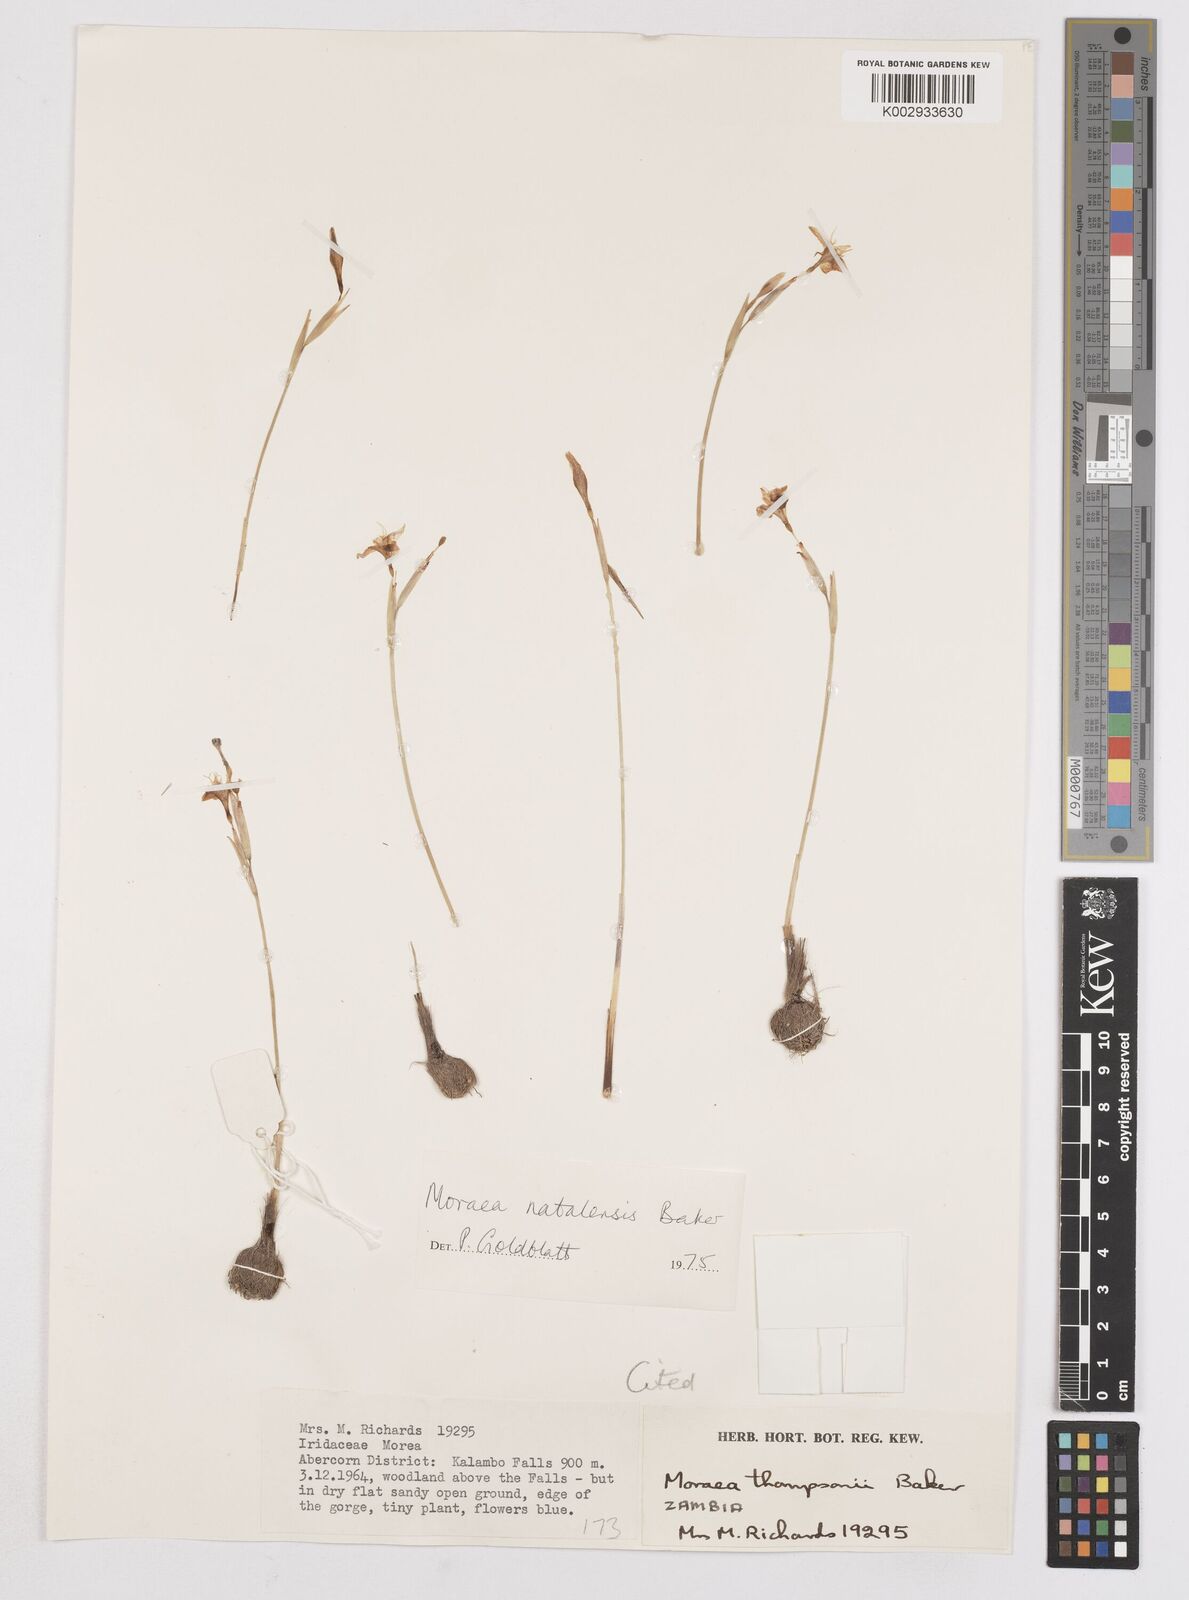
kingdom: Plantae
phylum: Tracheophyta
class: Liliopsida
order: Asparagales
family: Iridaceae
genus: Moraea
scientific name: Moraea natalensis
